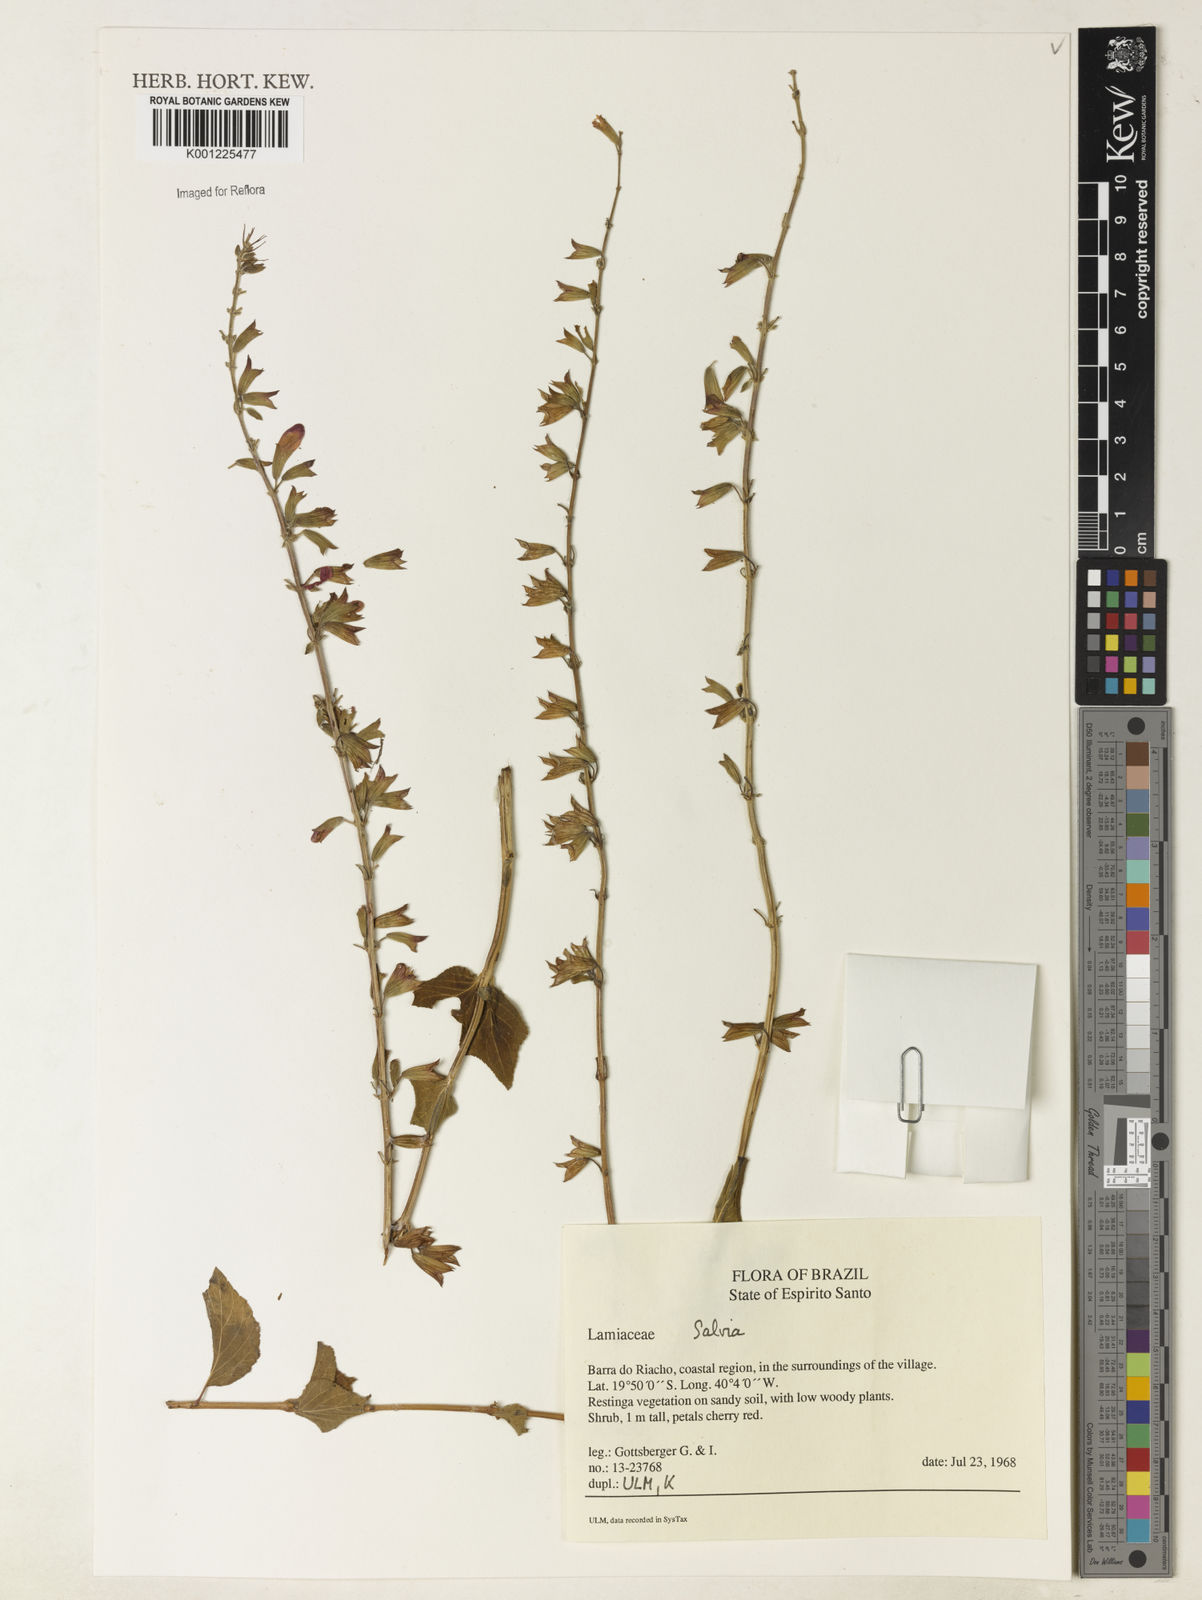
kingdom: Plantae
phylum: Tracheophyta
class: Magnoliopsida
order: Lamiales
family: Lamiaceae
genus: Salvia
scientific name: Salvia
